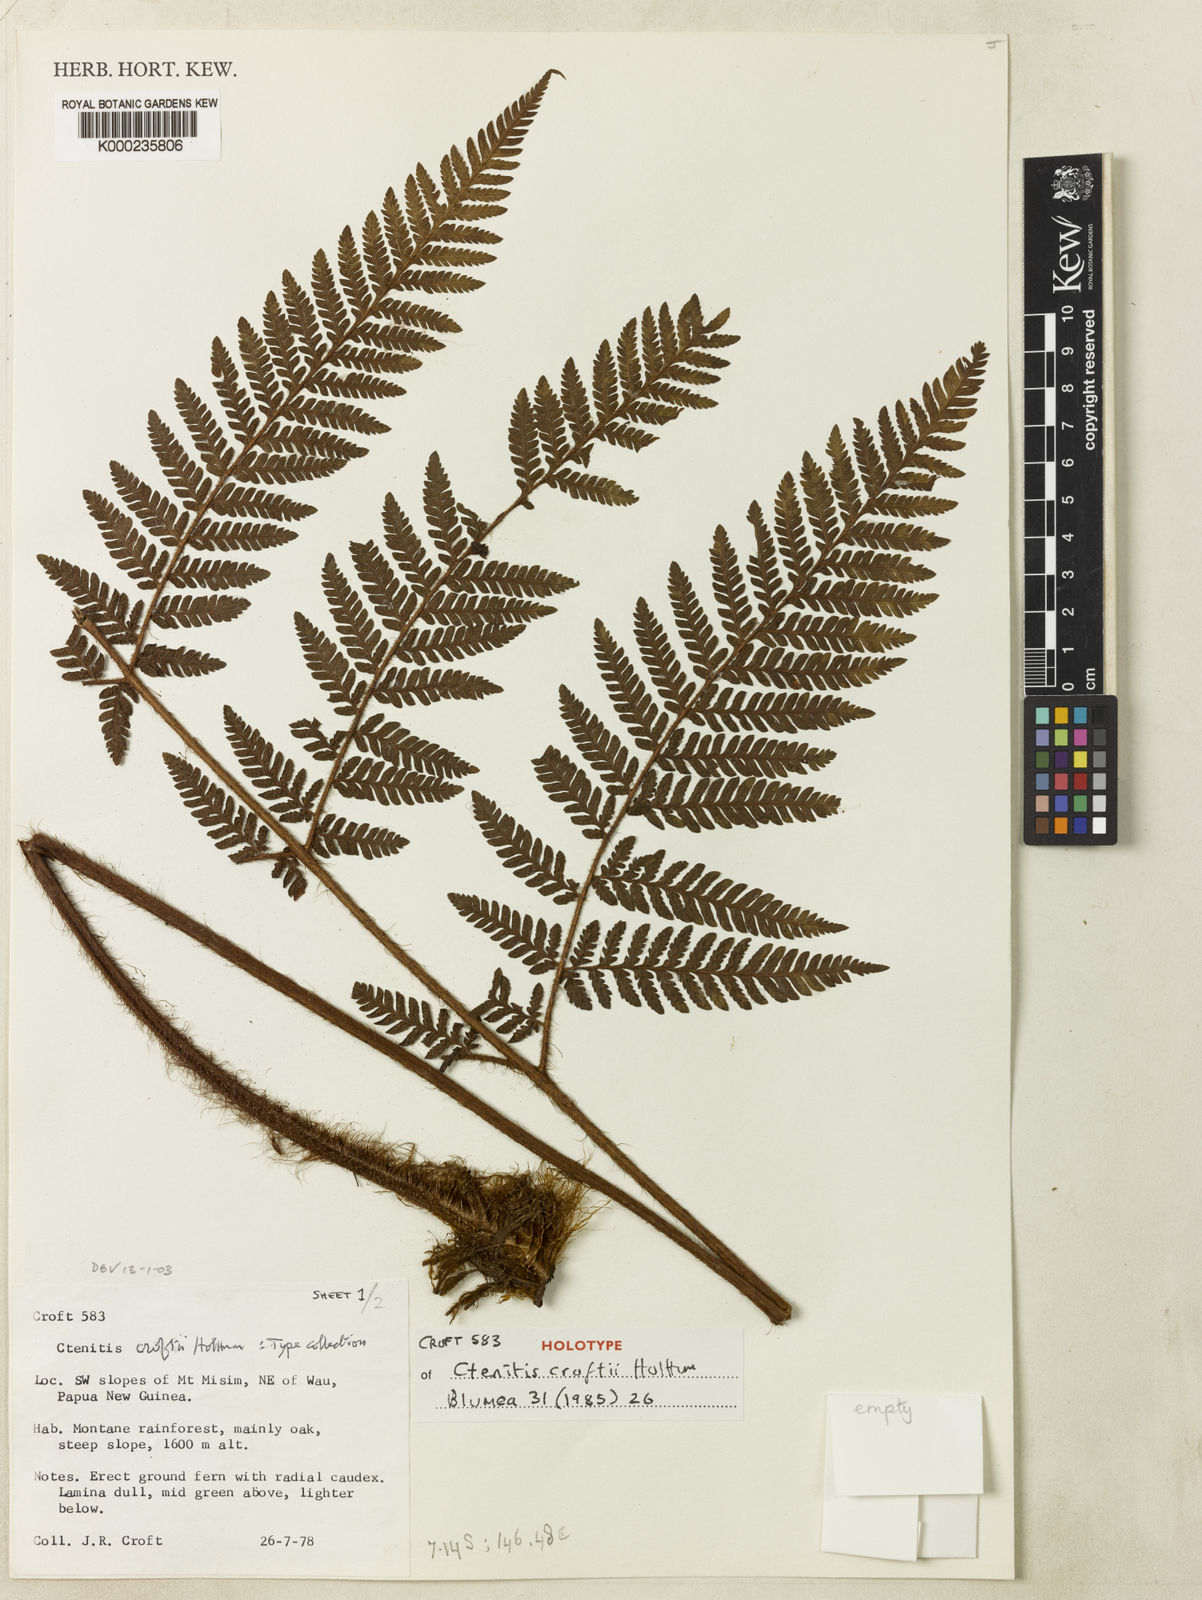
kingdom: Plantae
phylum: Tracheophyta
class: Polypodiopsida
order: Polypodiales
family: Dryopteridaceae
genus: Ctenitis
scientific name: Ctenitis croftii
